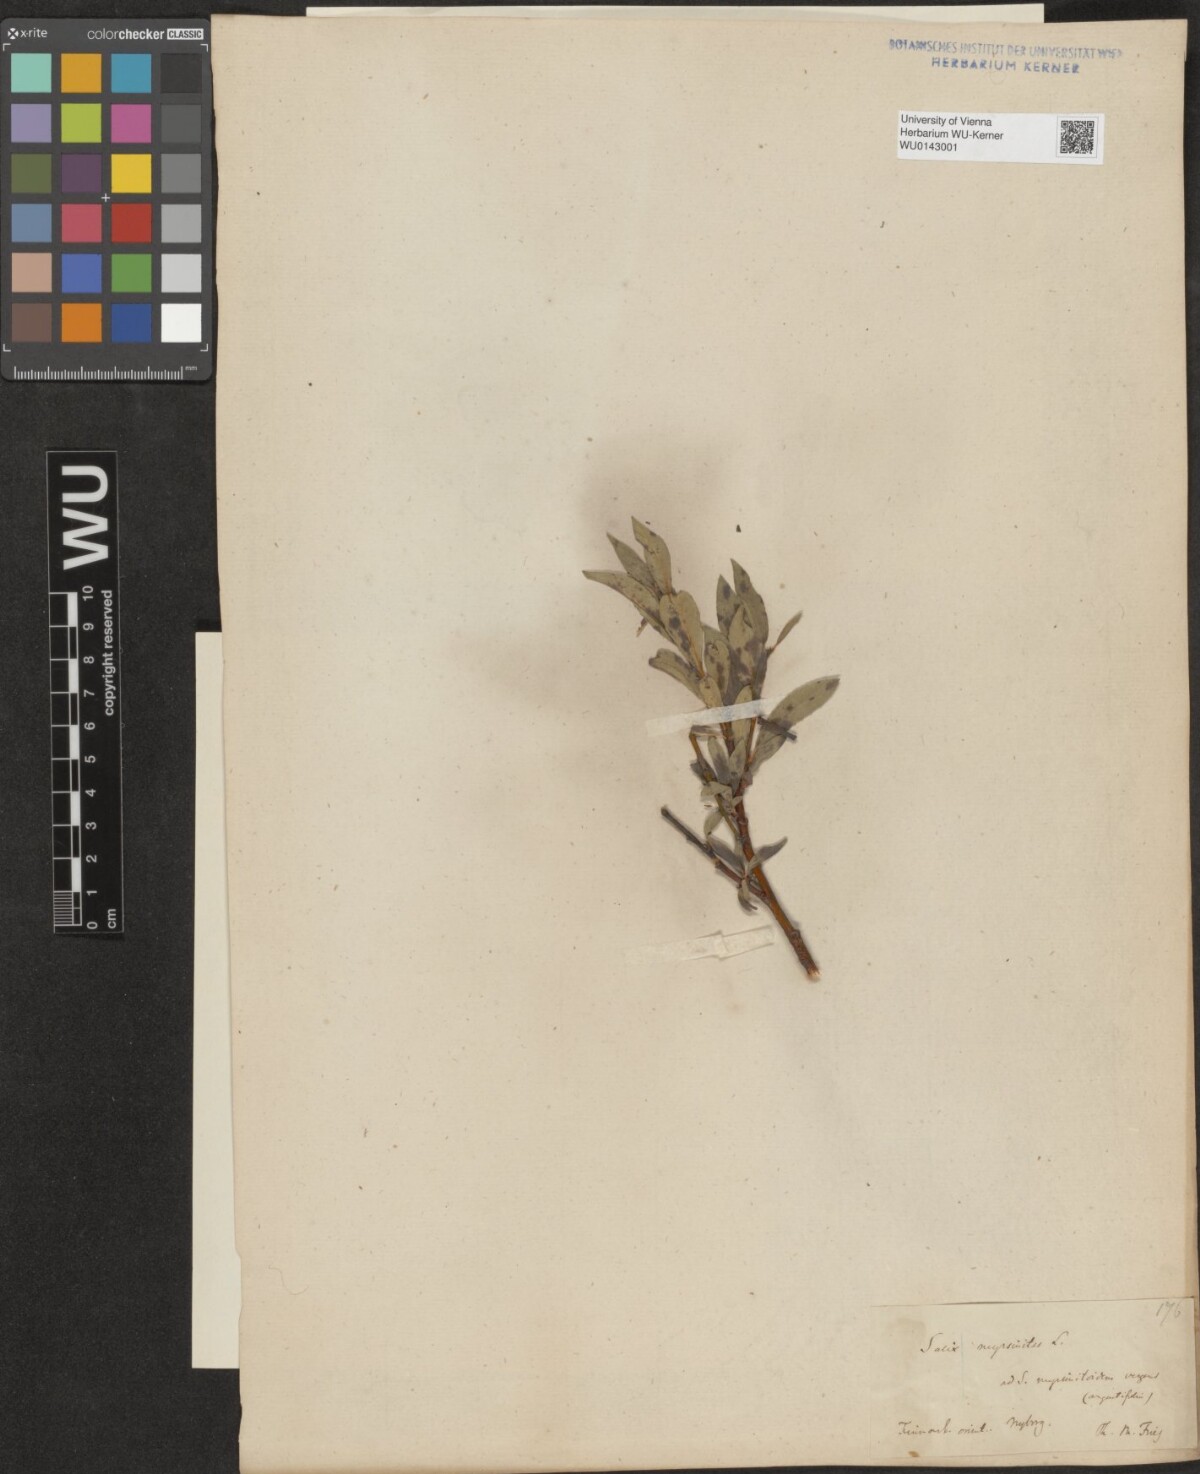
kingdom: Plantae
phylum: Tracheophyta
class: Magnoliopsida
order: Malpighiales
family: Salicaceae
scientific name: Salicaceae
